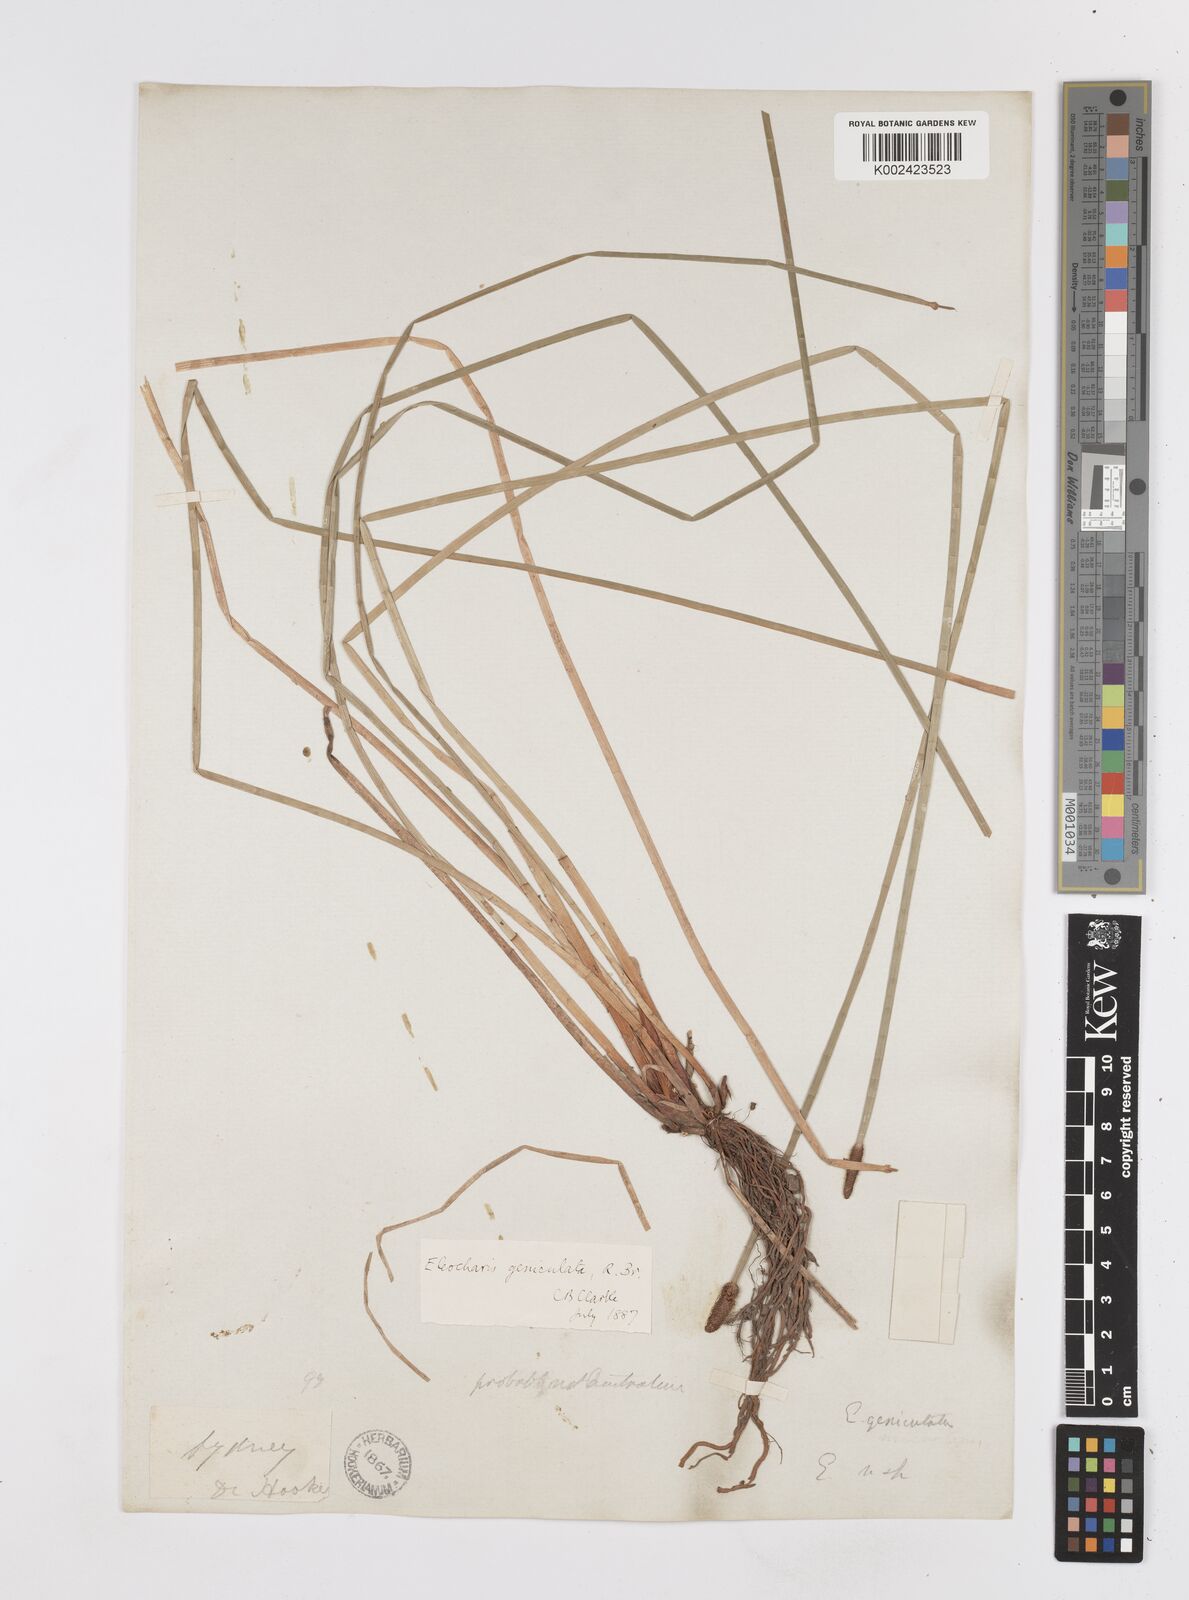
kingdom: Plantae
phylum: Tracheophyta
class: Liliopsida
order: Poales
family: Cyperaceae
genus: Eleocharis
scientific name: Eleocharis
